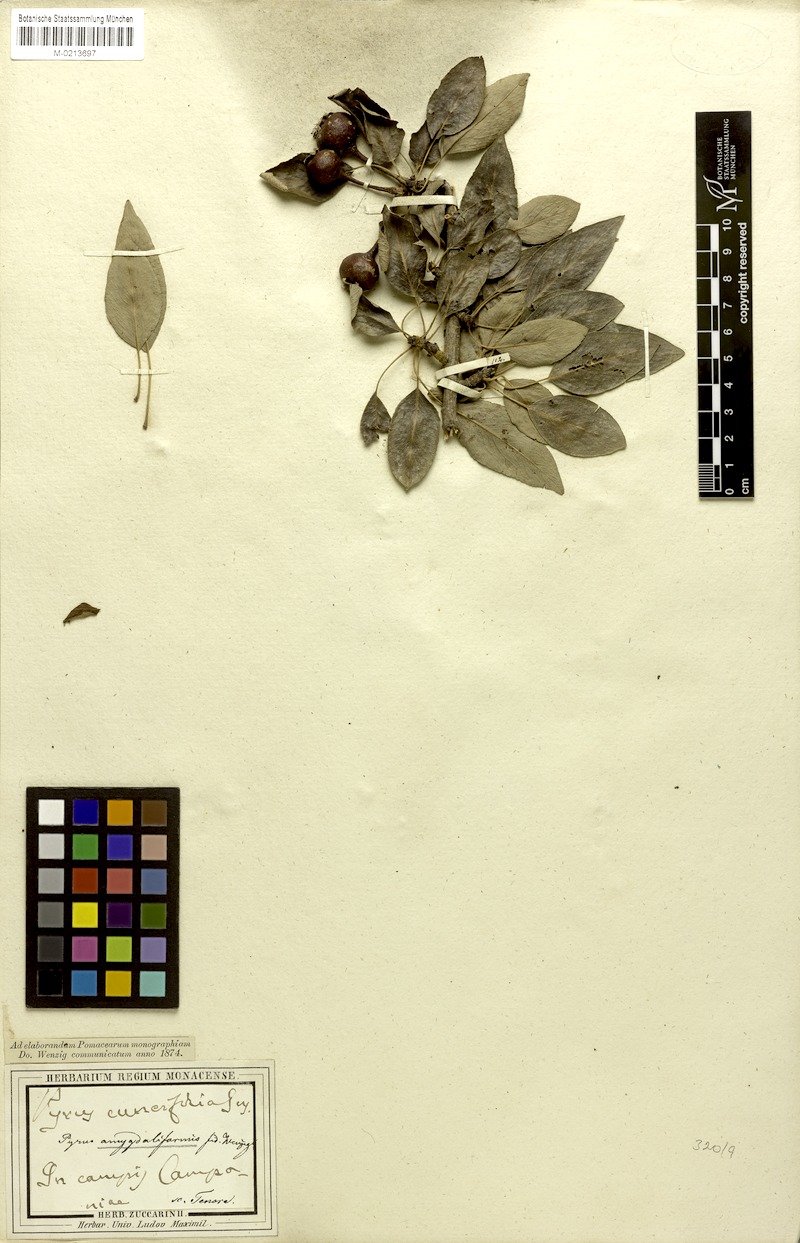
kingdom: Plantae
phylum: Tracheophyta
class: Magnoliopsida
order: Rosales
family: Rosaceae
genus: Pyrus
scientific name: Pyrus spinosa
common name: Almond-leaf pear
